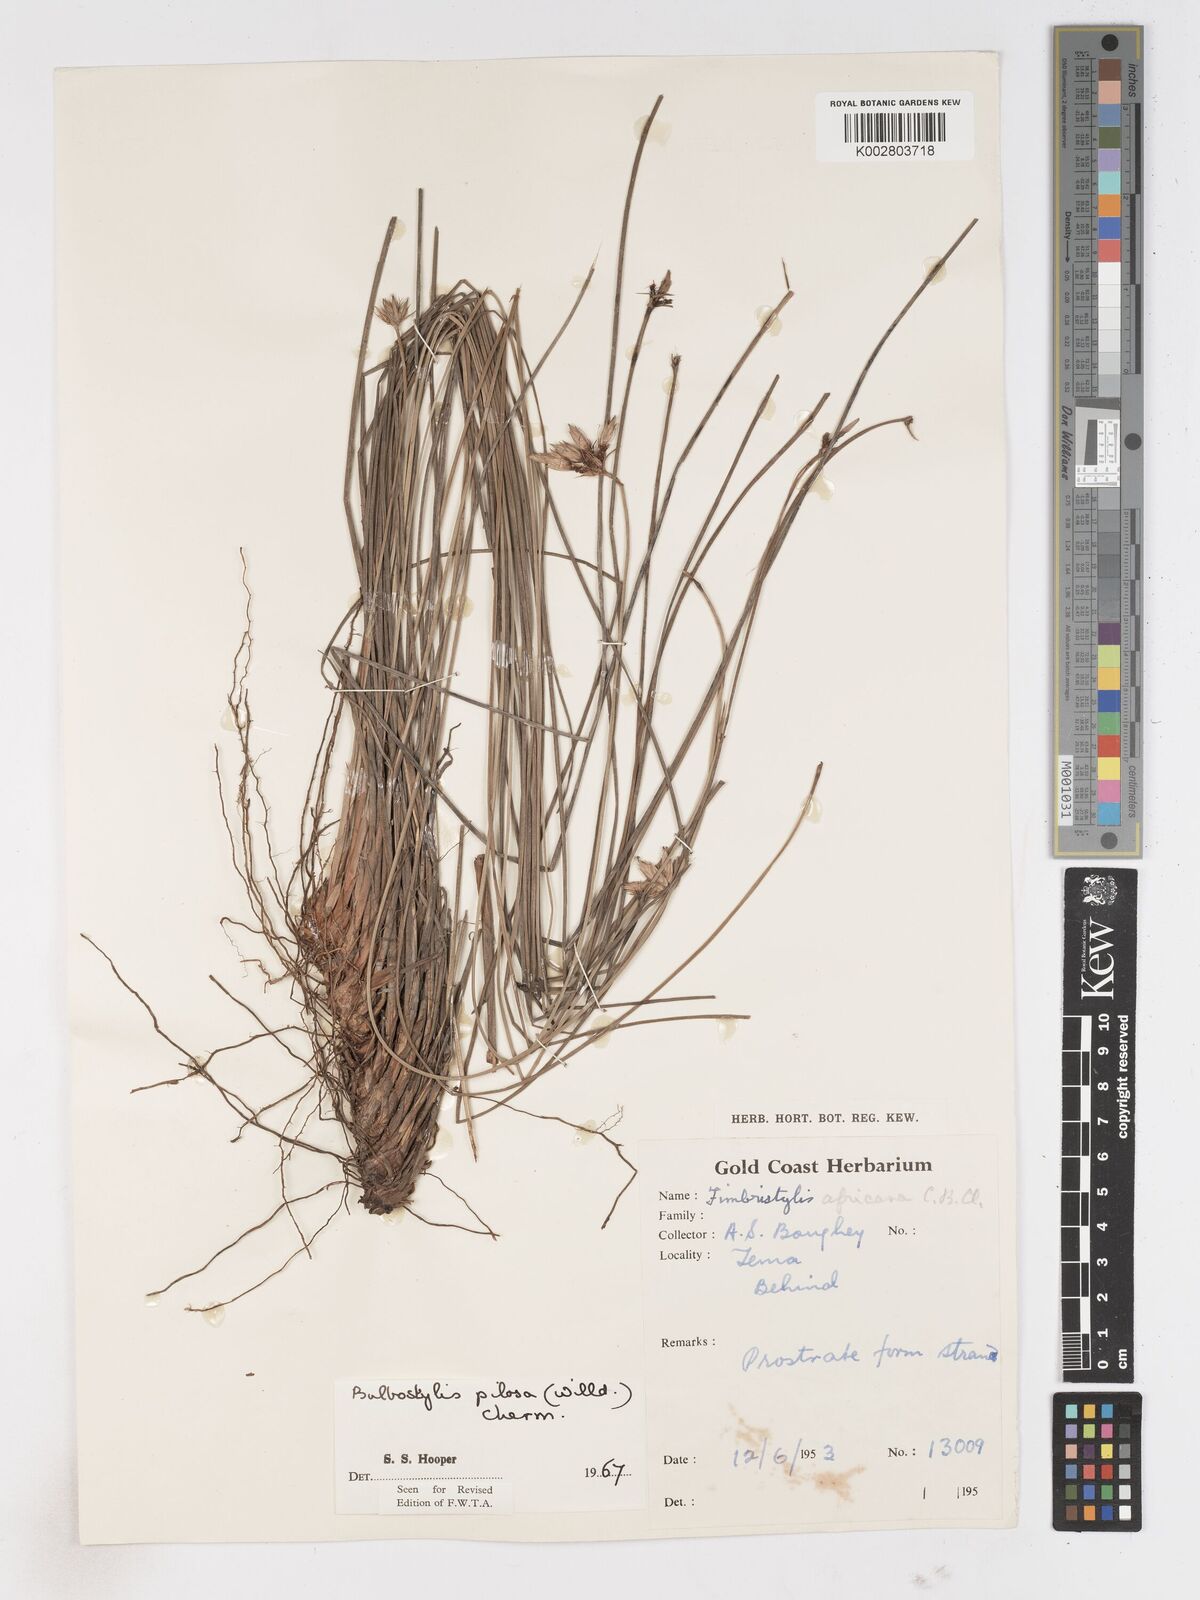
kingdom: Plantae
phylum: Tracheophyta
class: Liliopsida
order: Poales
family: Cyperaceae
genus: Bulbostylis
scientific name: Bulbostylis pilosa
